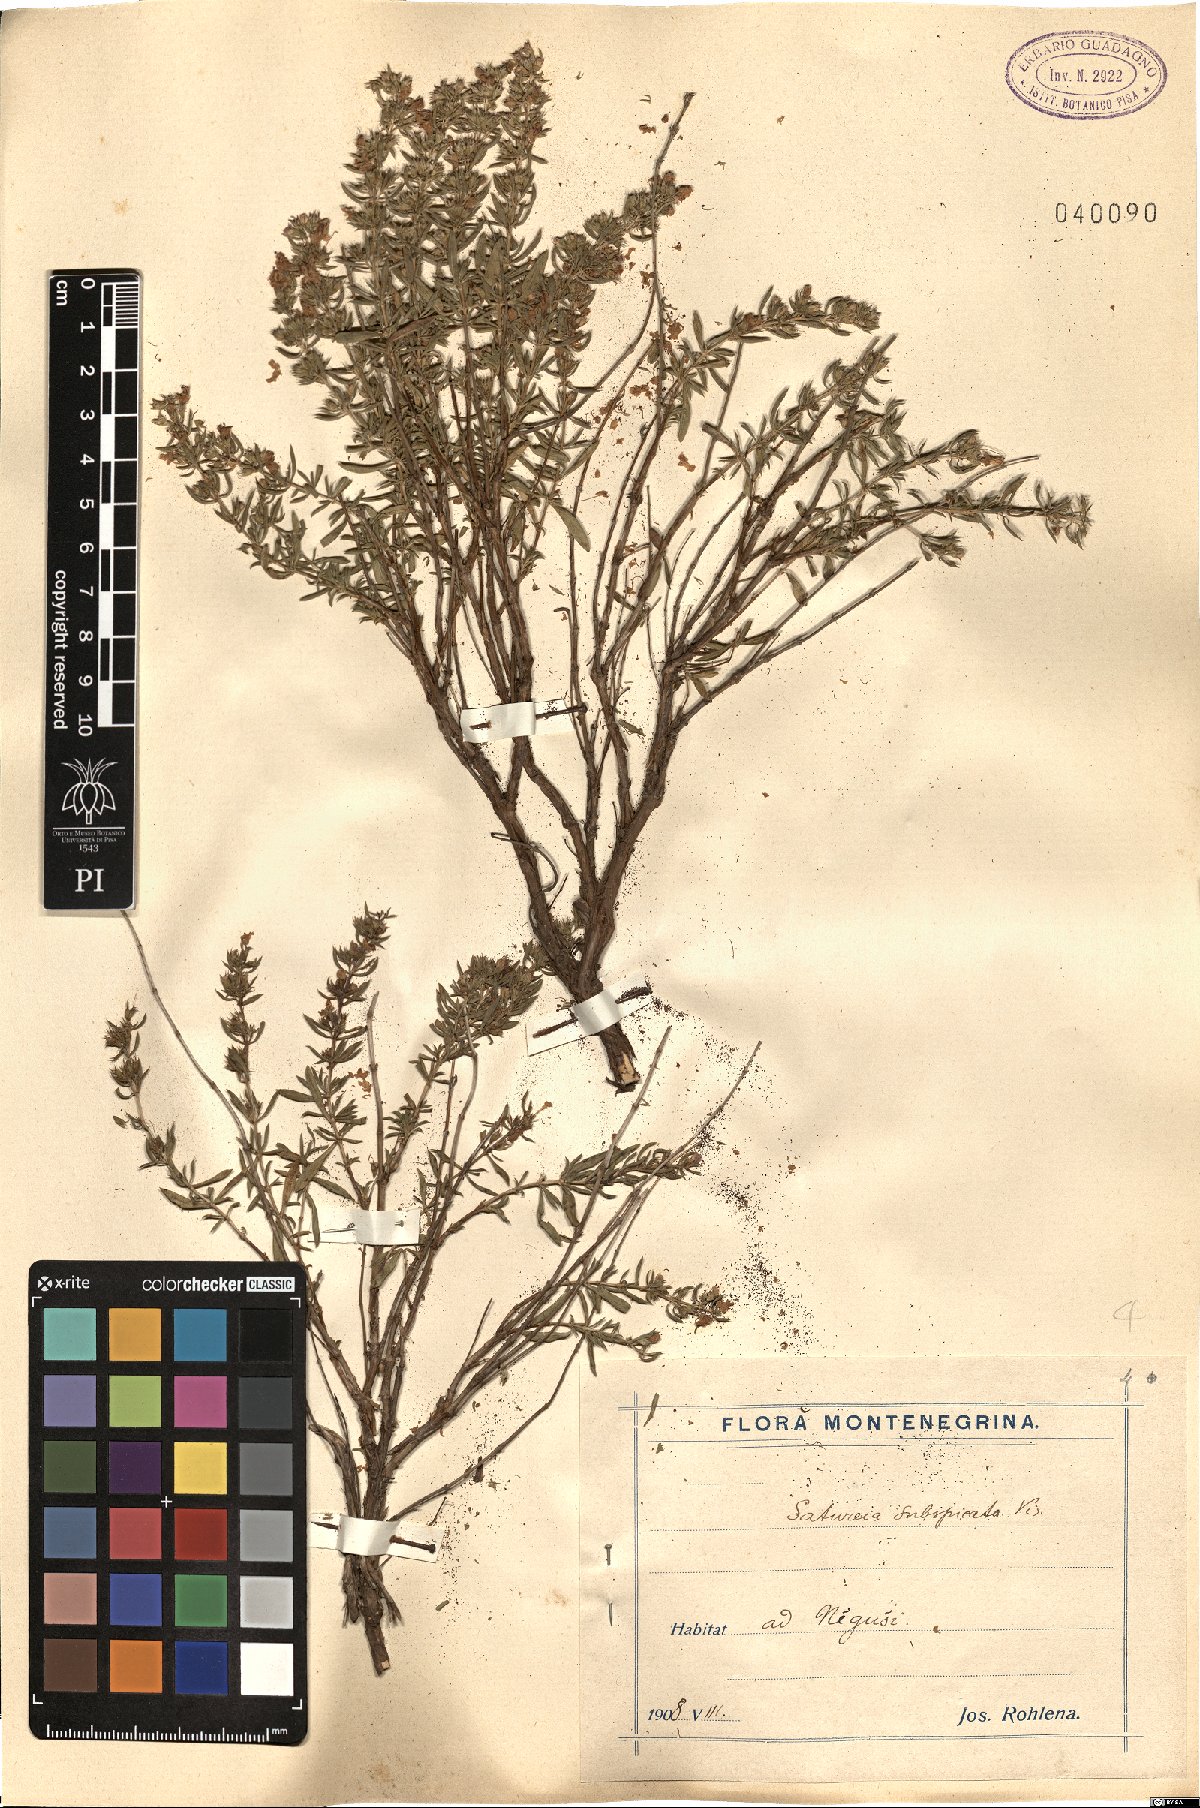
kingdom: Plantae
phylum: Tracheophyta
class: Magnoliopsida
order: Lamiales
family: Lamiaceae
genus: Satureja
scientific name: Satureja subspicata
